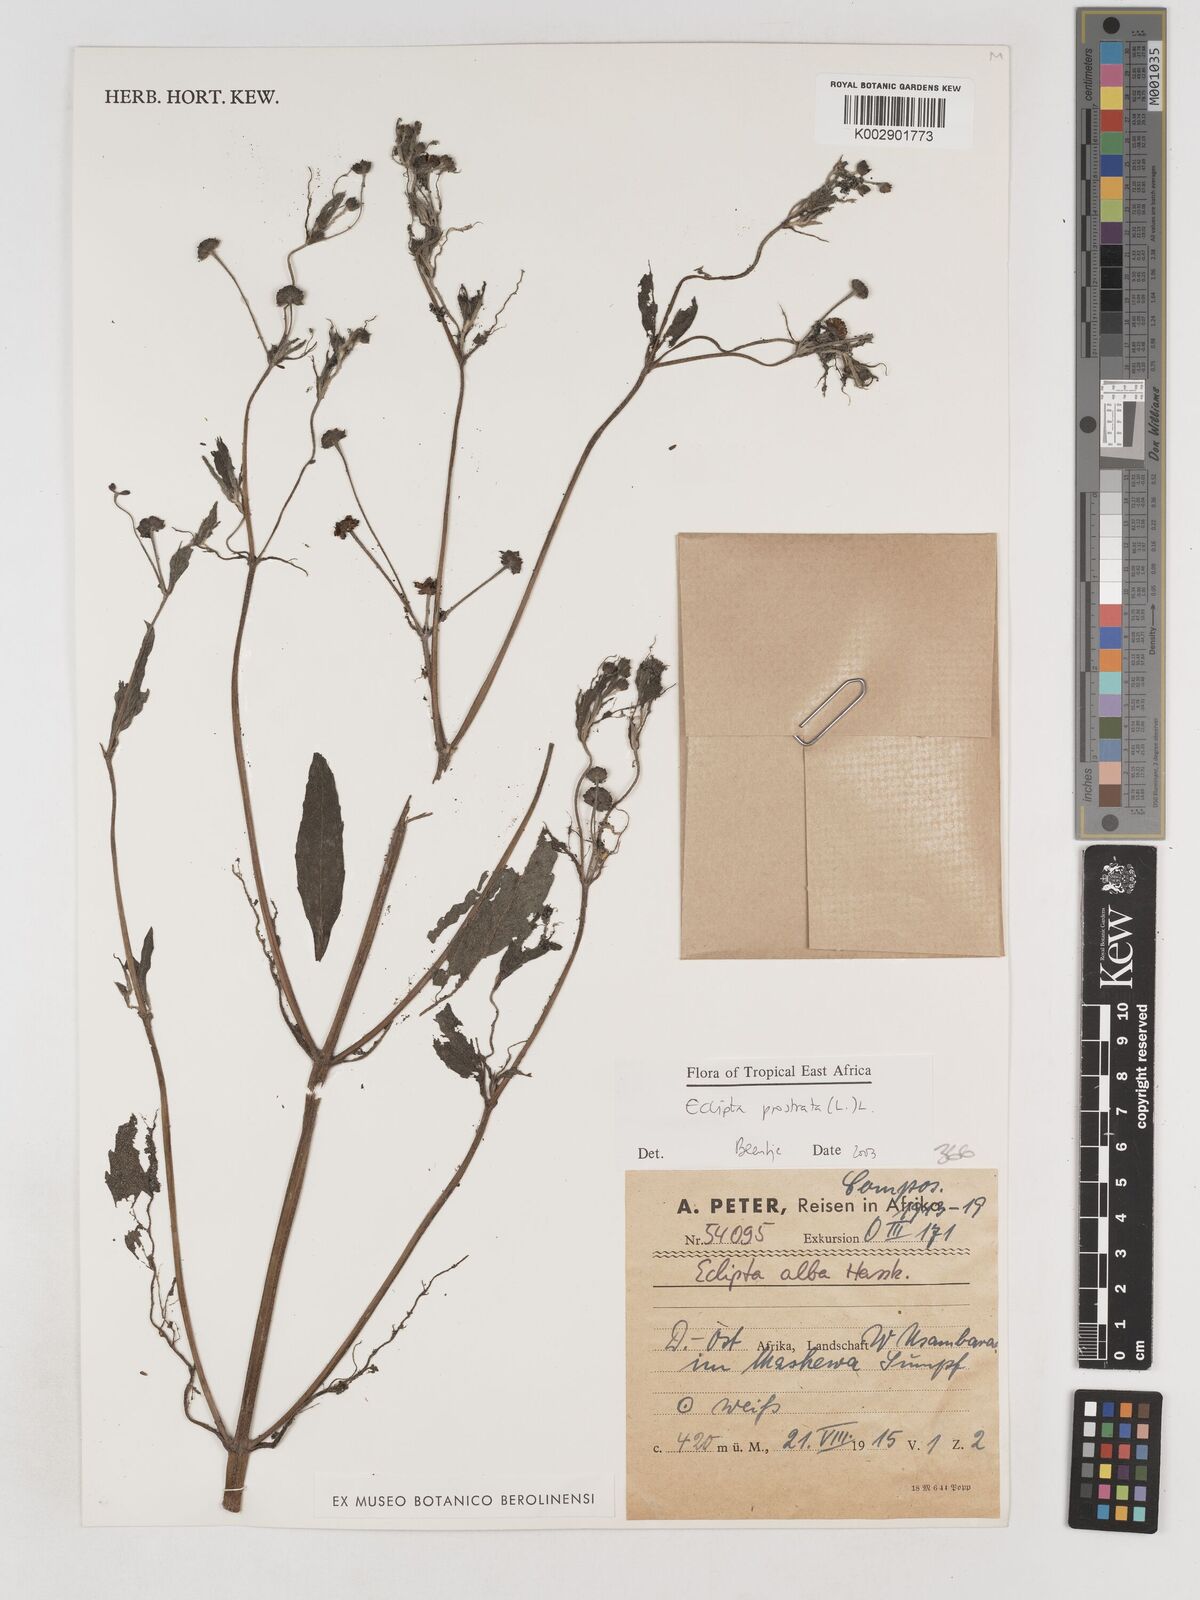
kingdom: Plantae
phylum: Tracheophyta
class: Magnoliopsida
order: Asterales
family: Asteraceae
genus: Eclipta
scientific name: Eclipta alba
